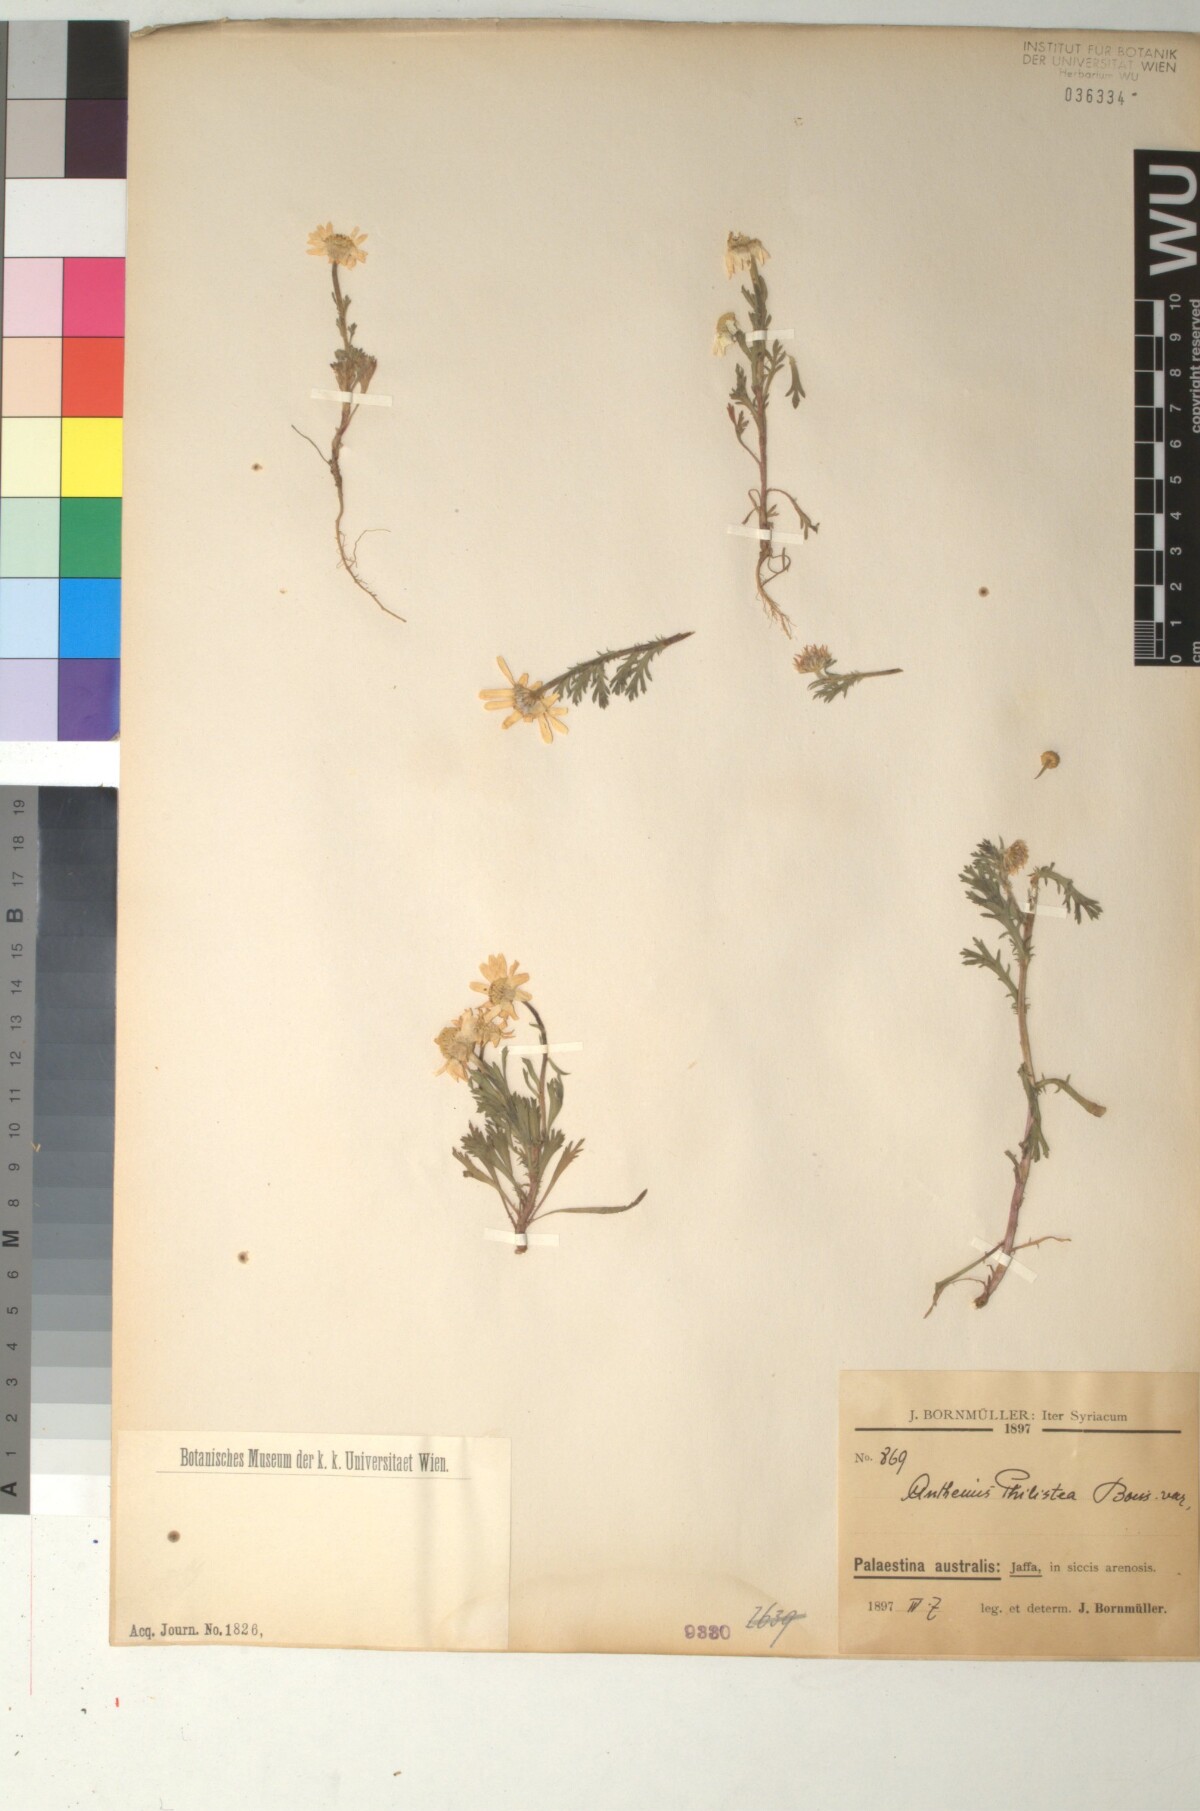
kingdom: Plantae
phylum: Tracheophyta
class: Magnoliopsida
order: Asterales
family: Asteraceae
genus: Anthemis
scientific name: Anthemis indurata
